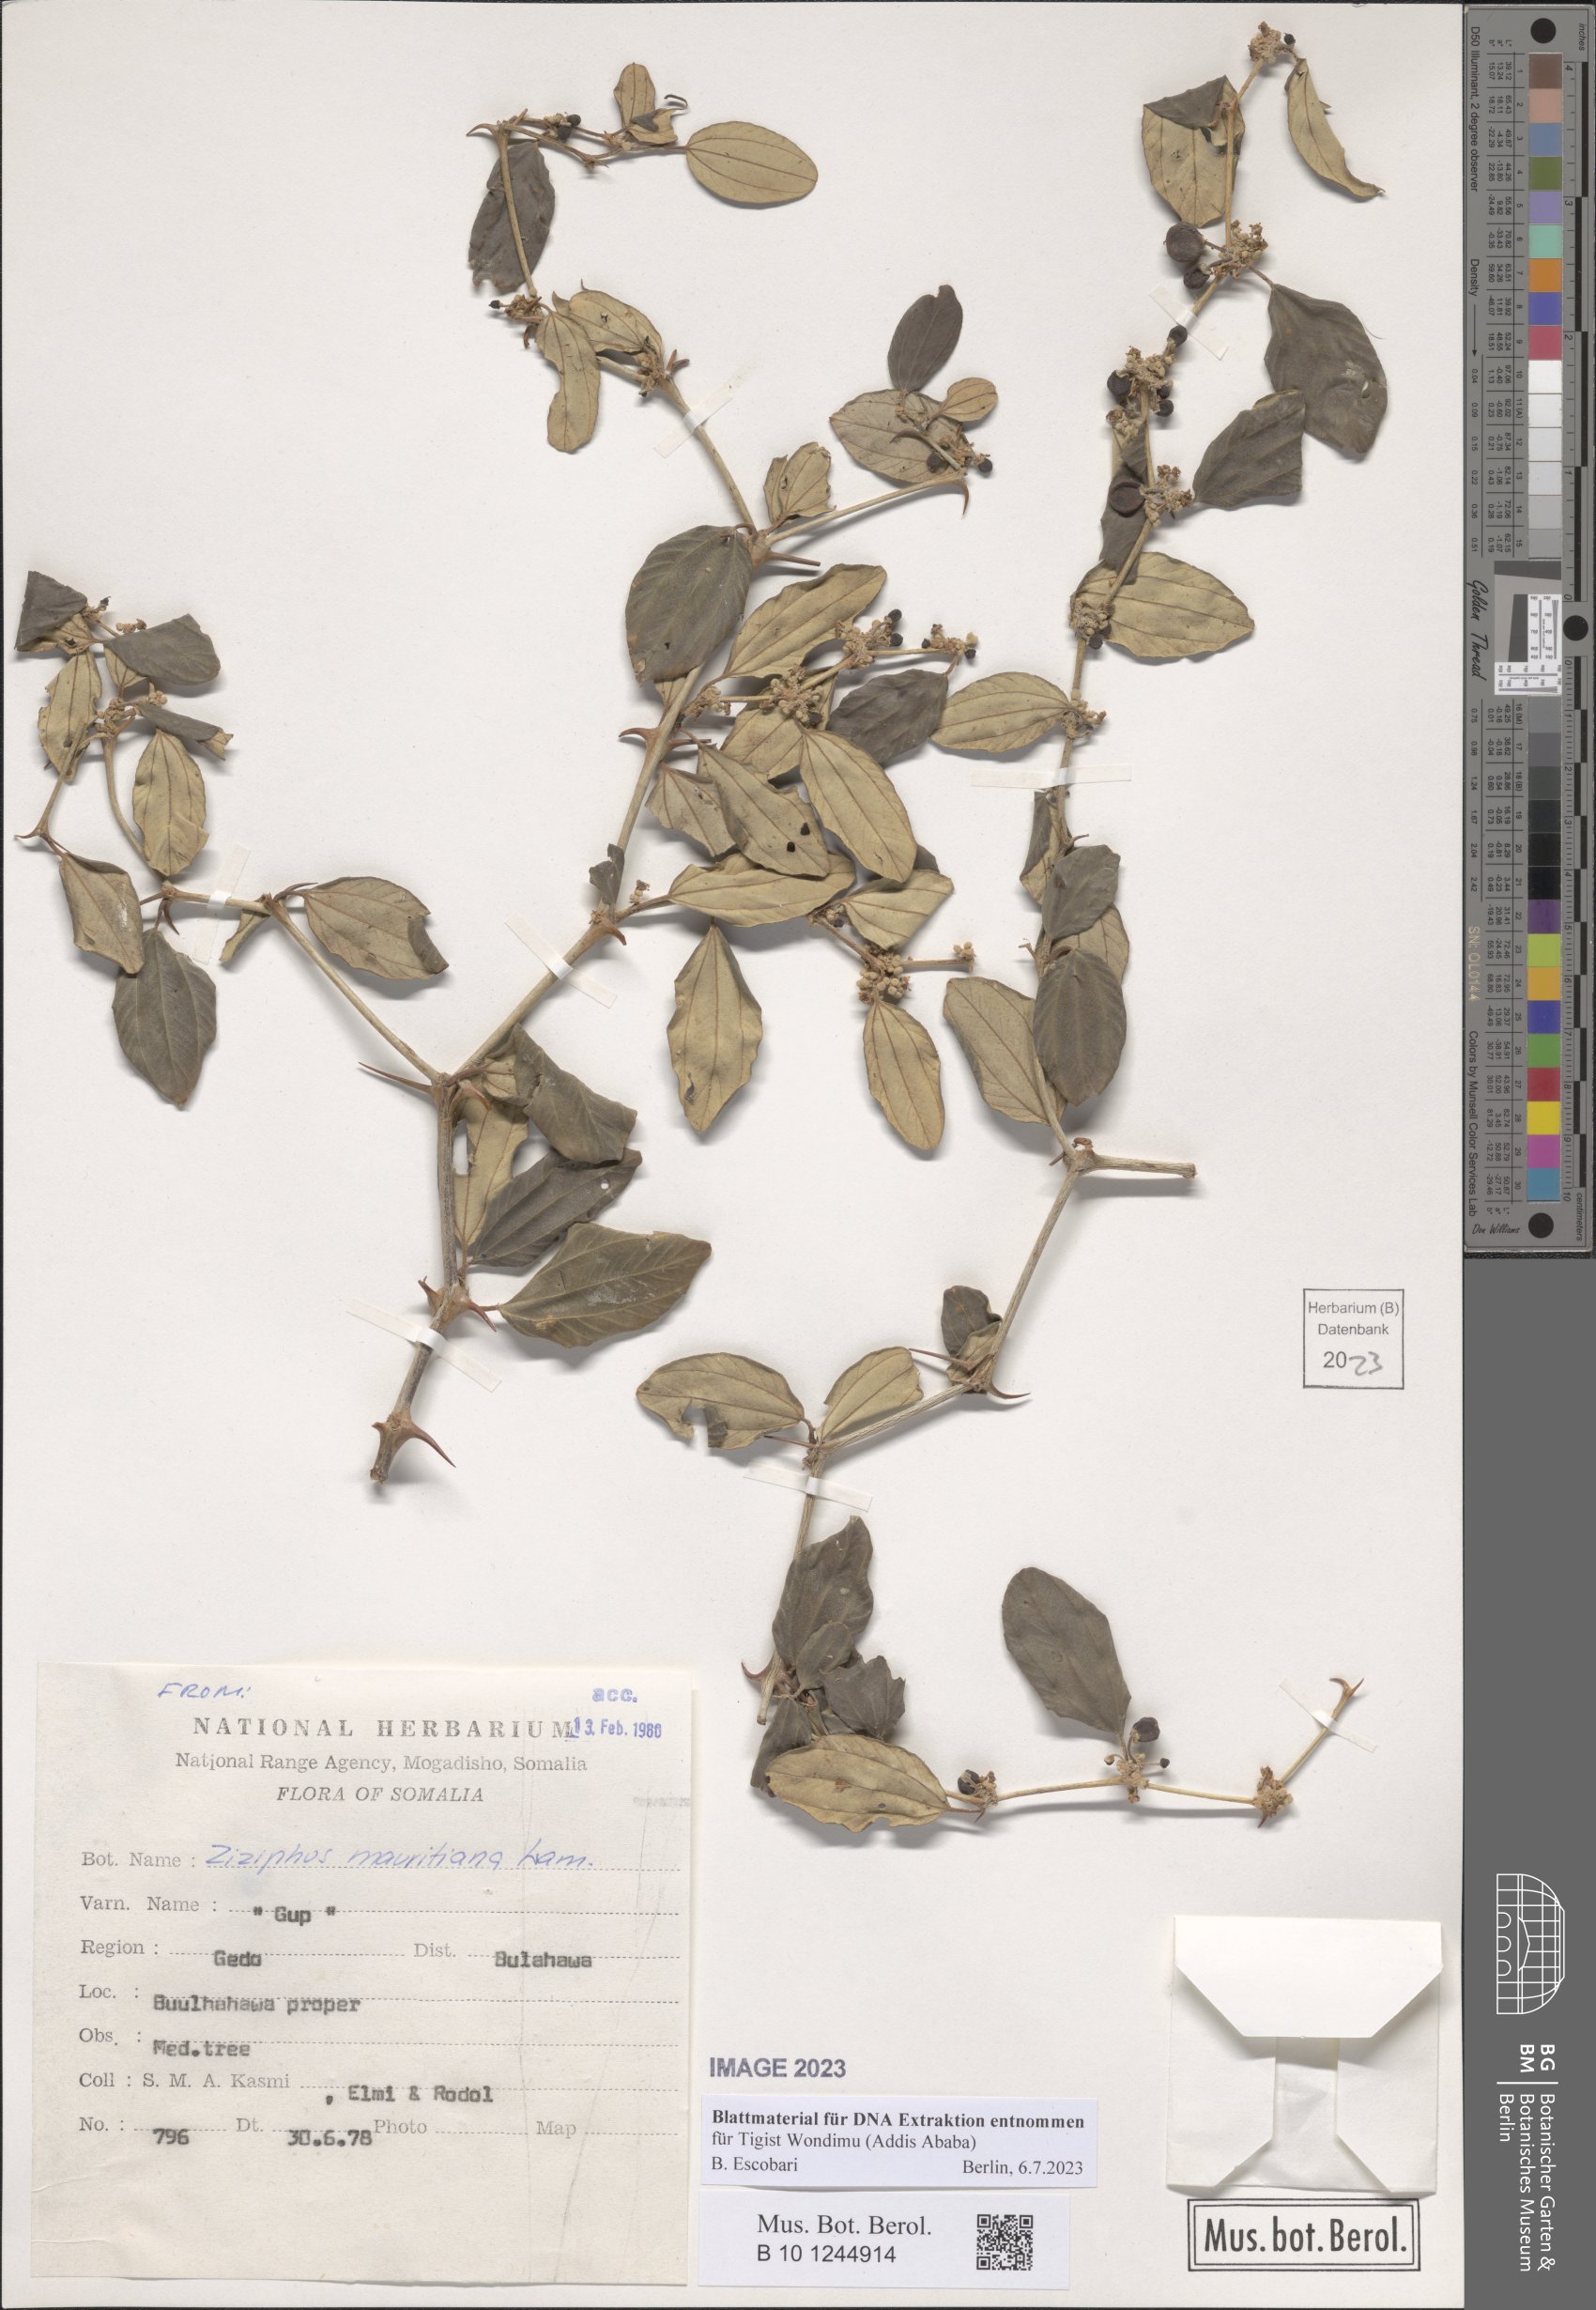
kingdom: Plantae
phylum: Tracheophyta
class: Magnoliopsida
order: Rosales
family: Rhamnaceae
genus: Ziziphus
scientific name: Ziziphus mauritiana
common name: Indian jujube
